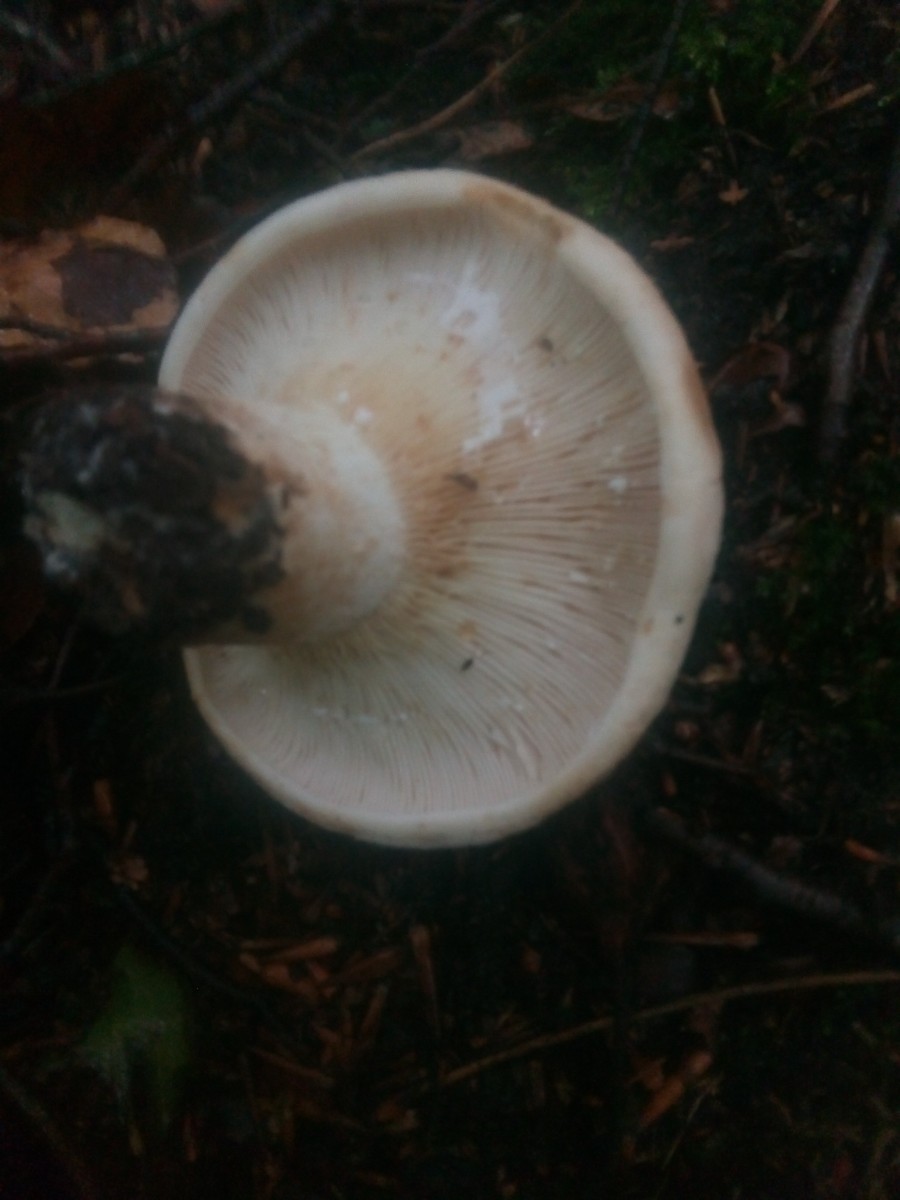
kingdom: Fungi
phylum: Basidiomycota
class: Agaricomycetes
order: Russulales
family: Russulaceae
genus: Lactifluus
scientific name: Lactifluus vellereus
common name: hvidfiltet mælkehat
